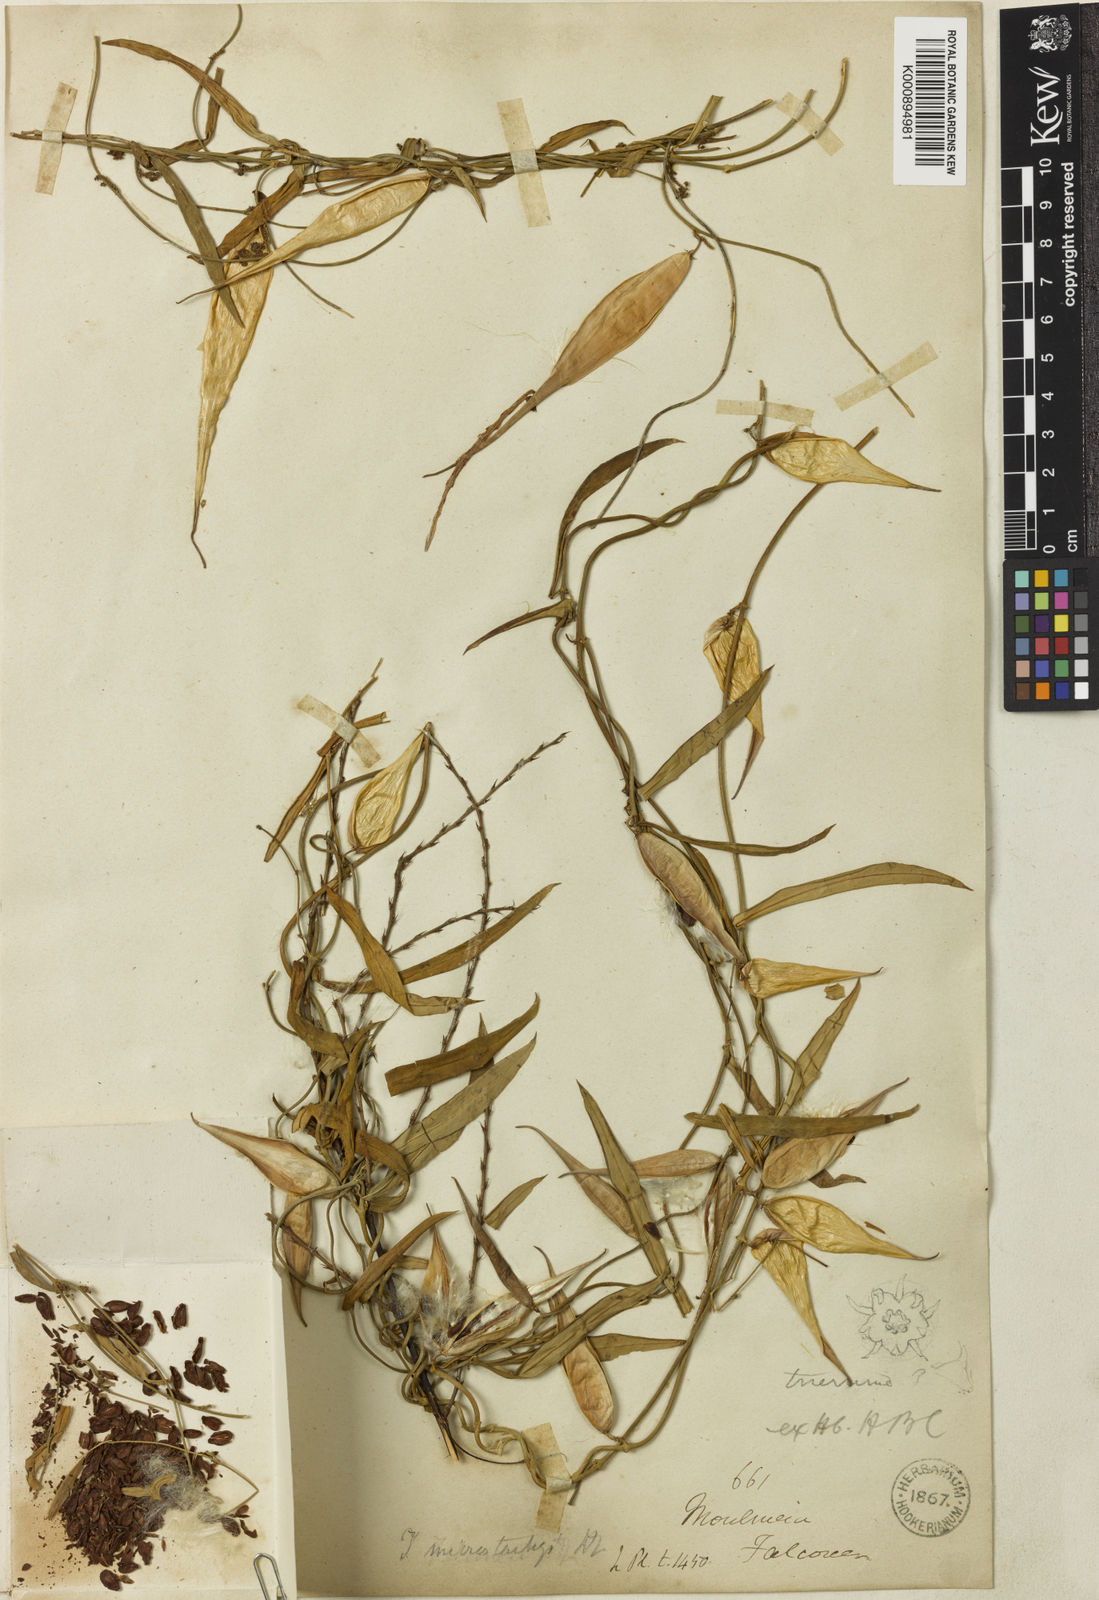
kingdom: Plantae
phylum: Tracheophyta
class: Magnoliopsida
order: Gentianales
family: Apocynaceae
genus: Vincetoxicum
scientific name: Vincetoxicum microstachys
